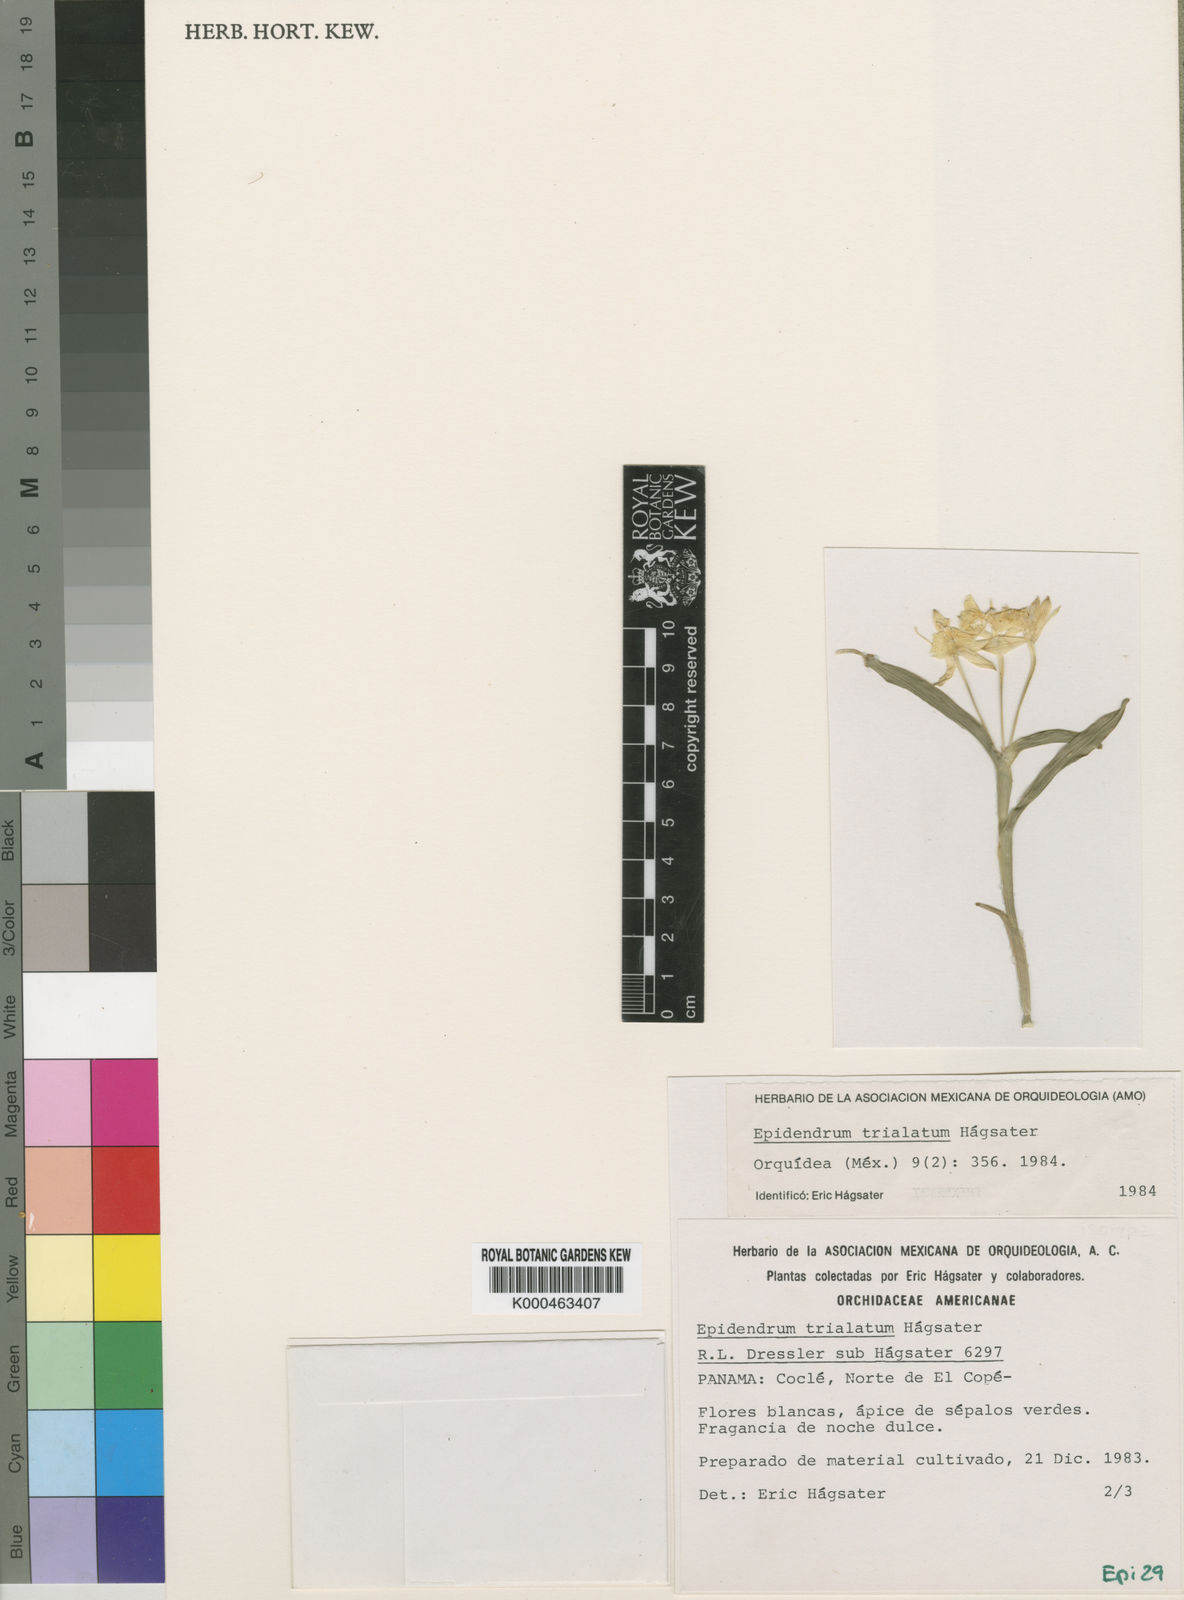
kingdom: Plantae
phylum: Tracheophyta
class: Liliopsida
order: Asparagales
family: Orchidaceae
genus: Epidendrum
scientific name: Epidendrum
